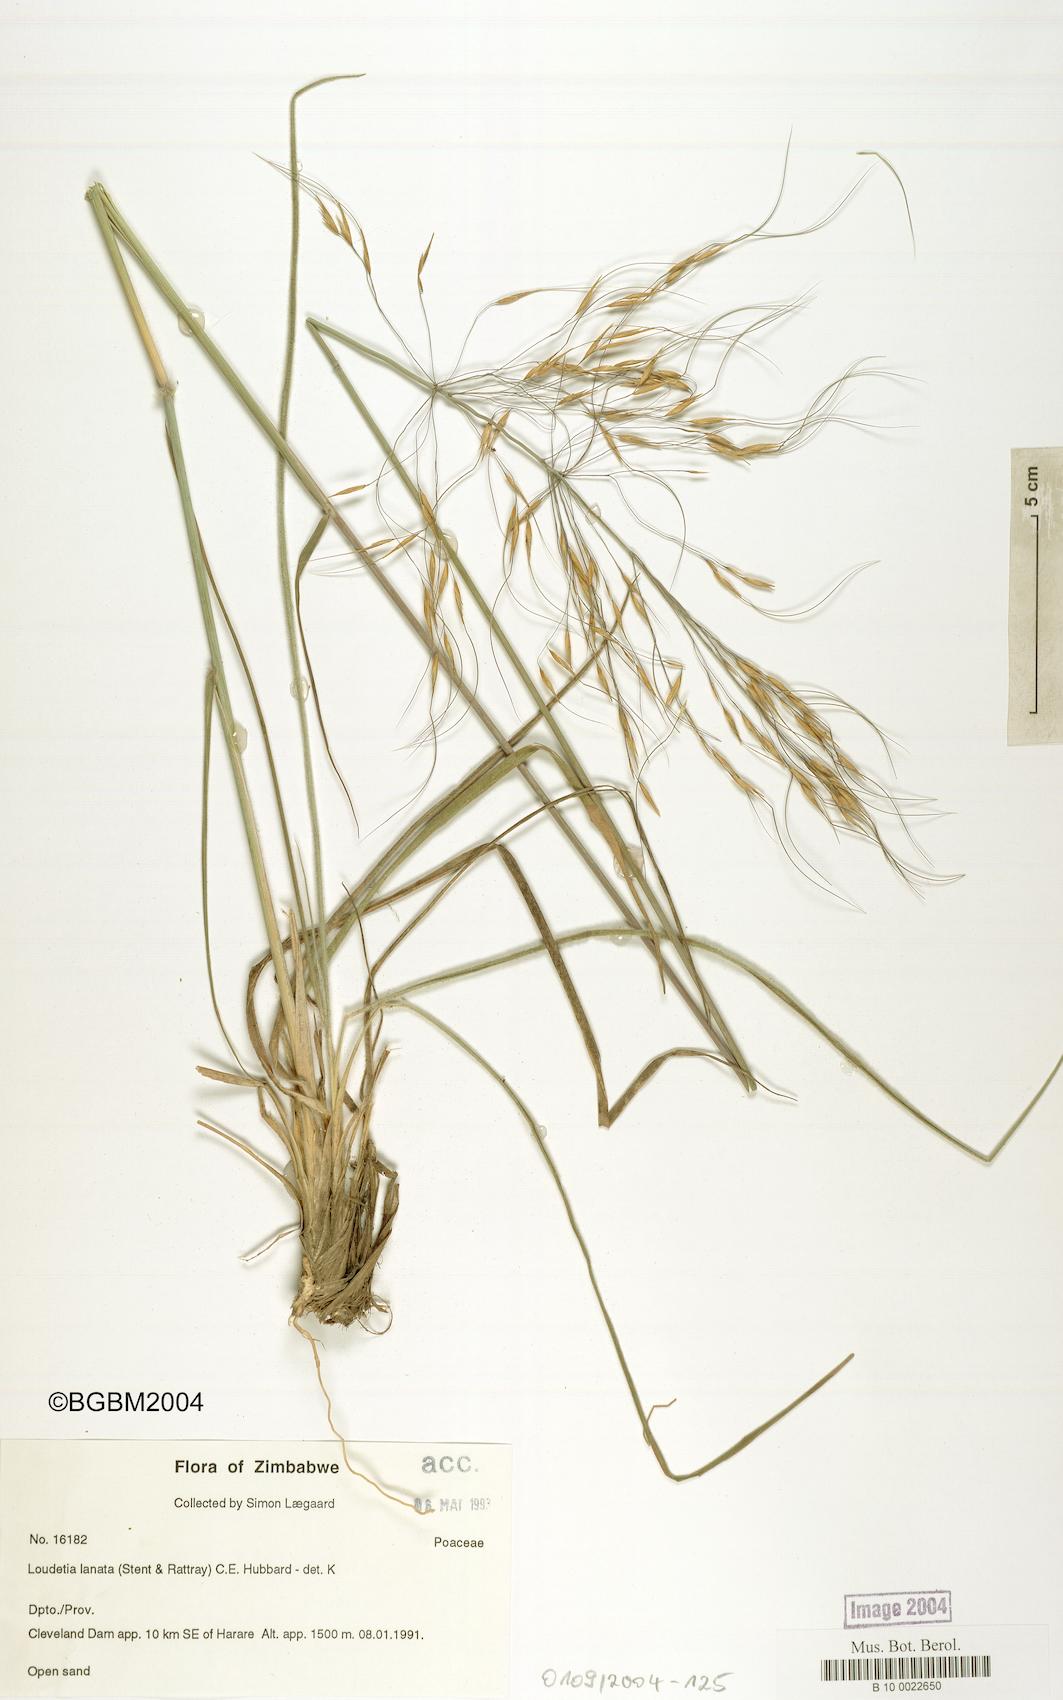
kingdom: Plantae
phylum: Tracheophyta
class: Liliopsida
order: Poales
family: Poaceae
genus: Loudetia
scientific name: Loudetia lanata
